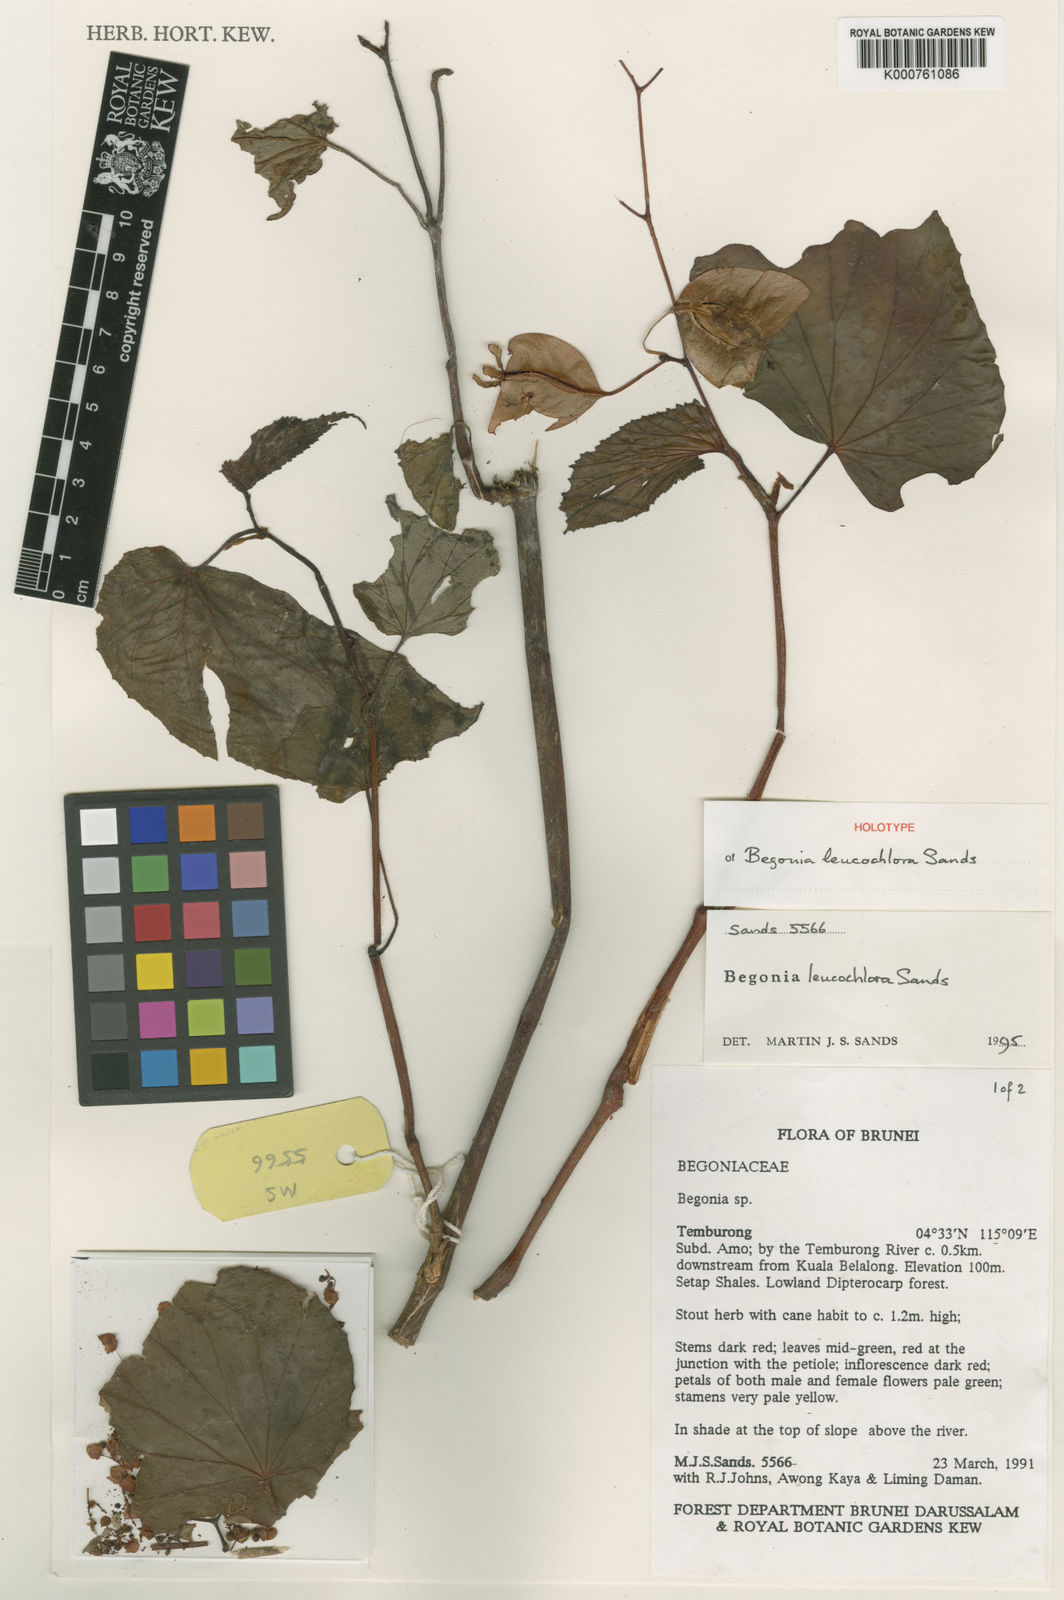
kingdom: Plantae
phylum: Tracheophyta
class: Magnoliopsida
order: Cucurbitales
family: Begoniaceae
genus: Begonia
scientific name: Begonia leucochlora
